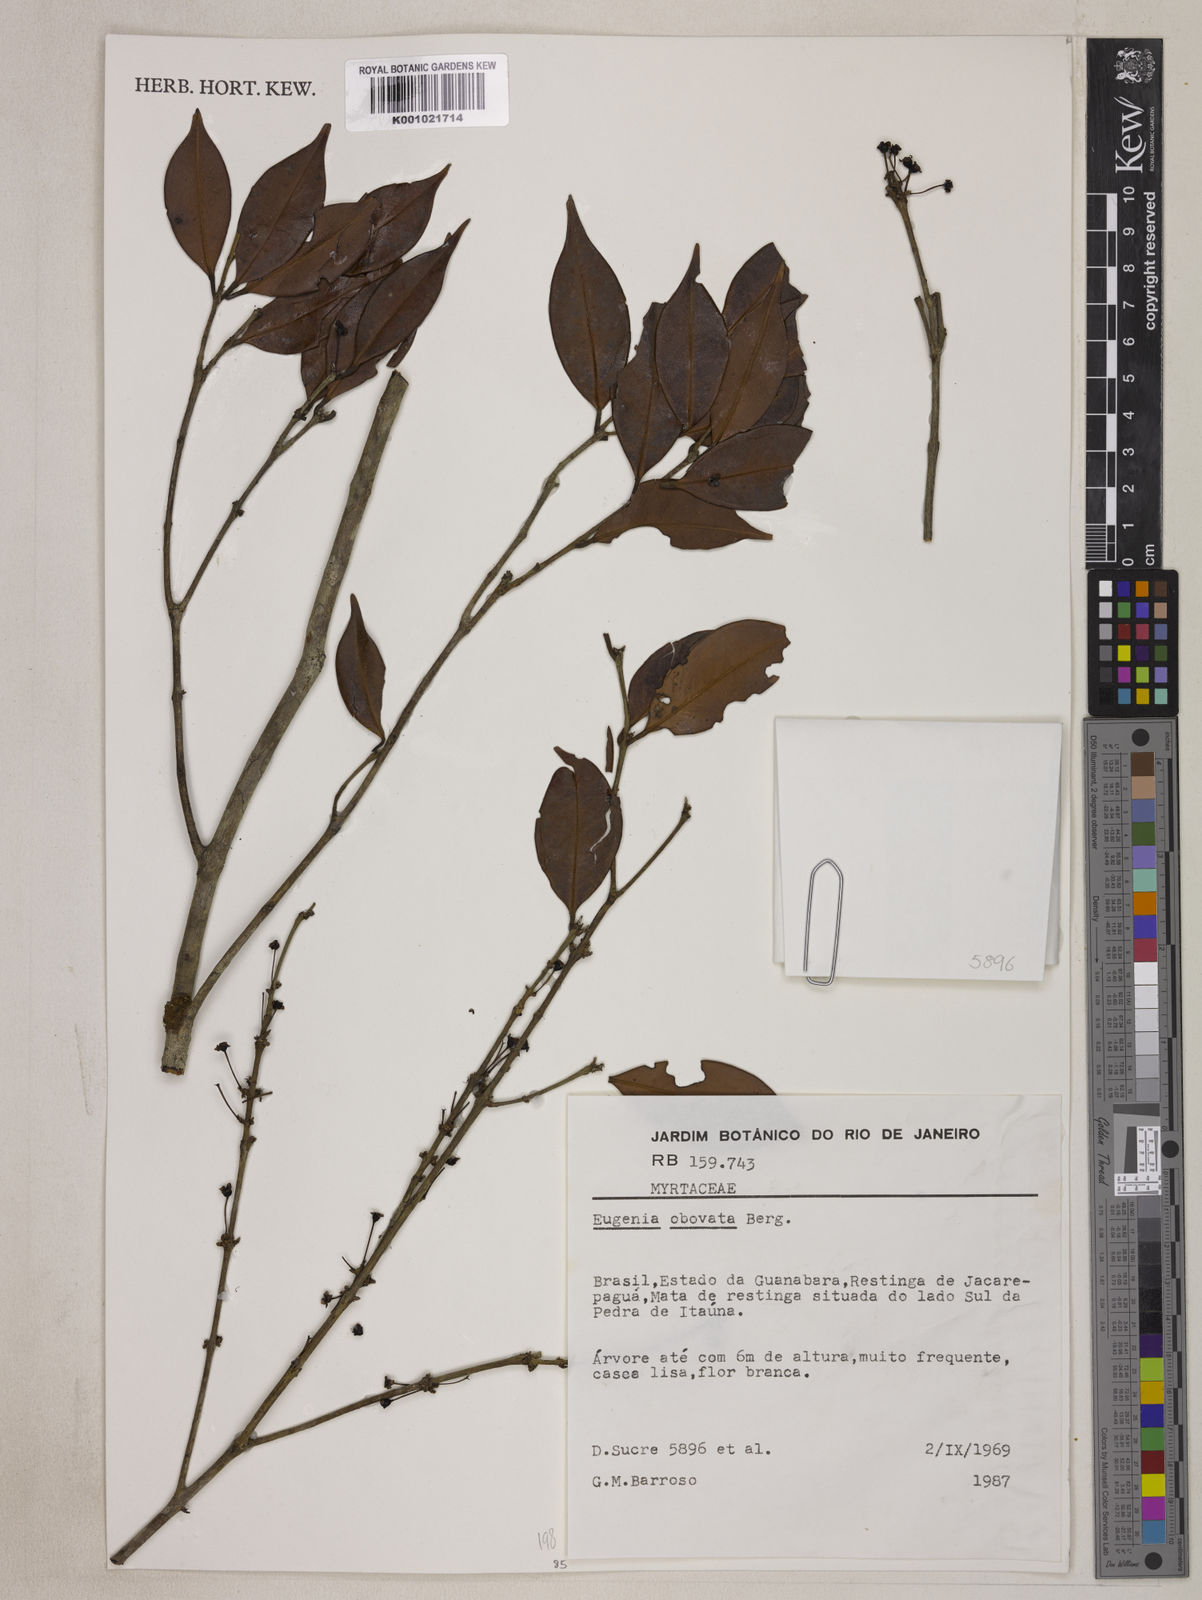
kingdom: Plantae
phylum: Tracheophyta
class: Magnoliopsida
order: Myrtales
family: Myrtaceae
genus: Eugenia
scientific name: Eugenia zuccarinii
